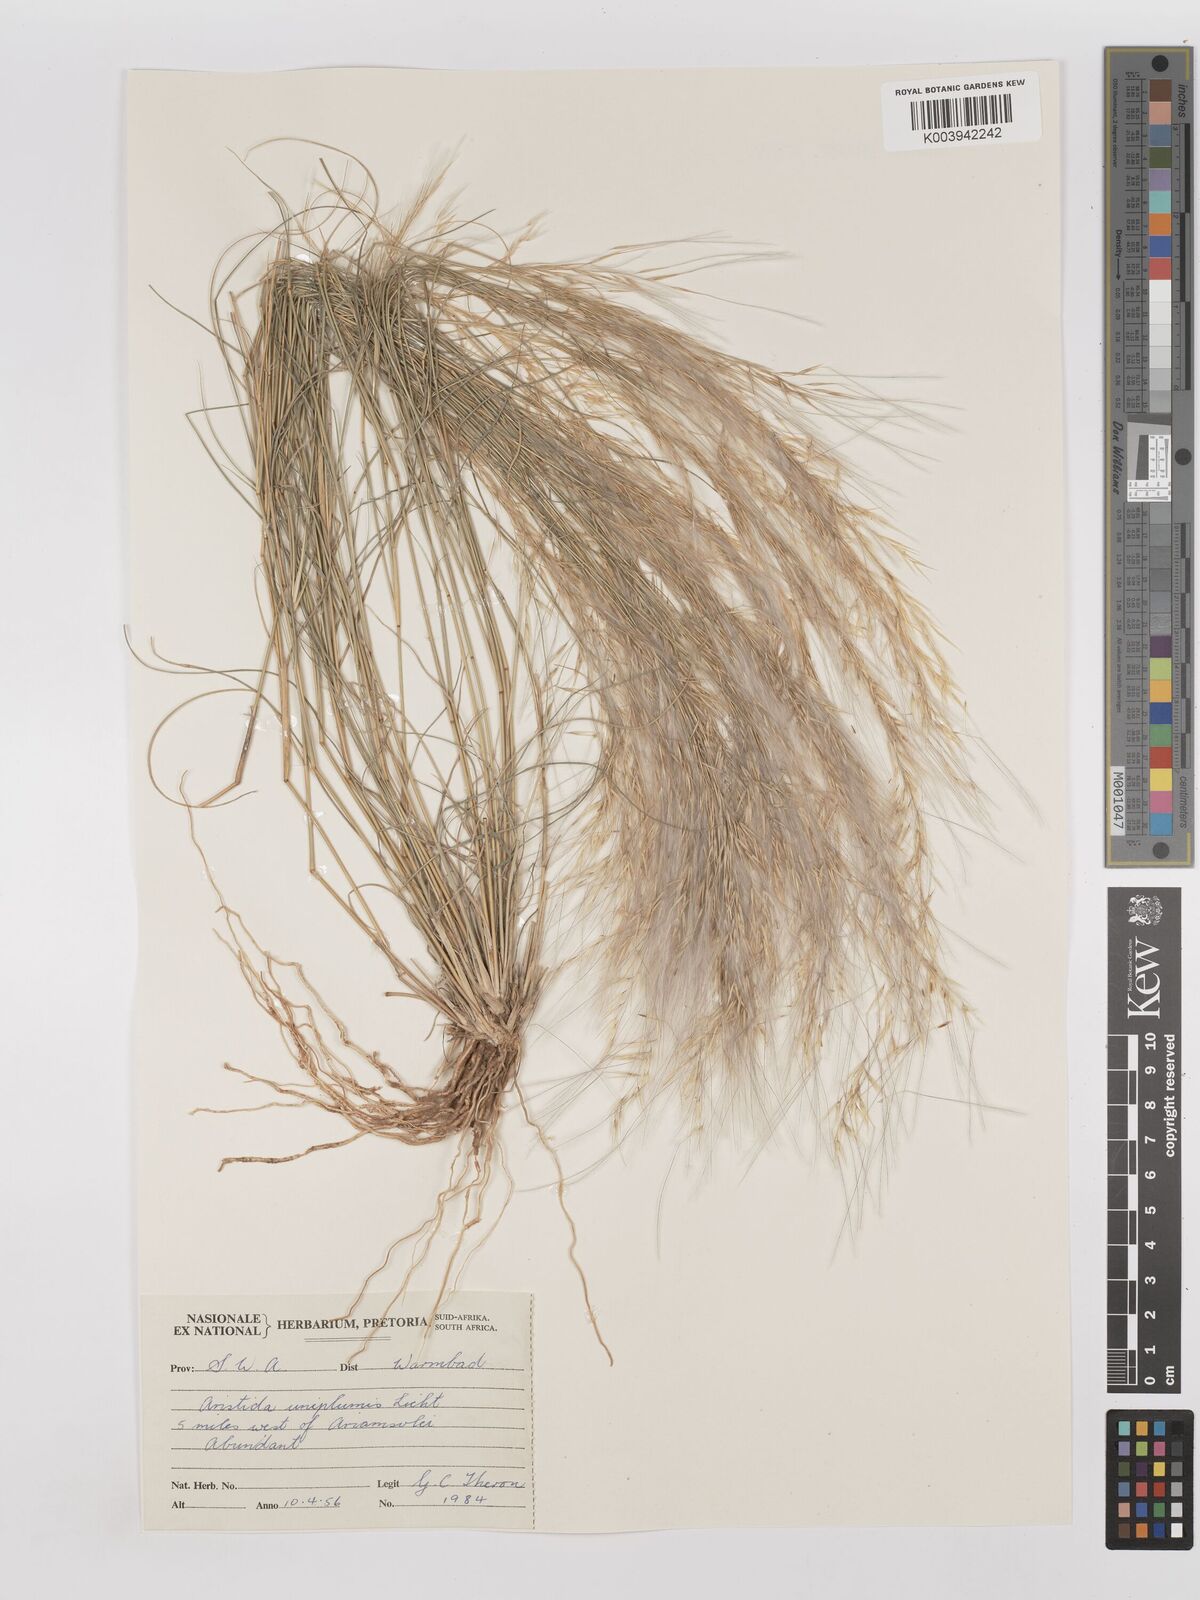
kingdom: Plantae
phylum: Tracheophyta
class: Liliopsida
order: Poales
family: Poaceae
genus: Stipagrostis
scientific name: Stipagrostis uniplumis
